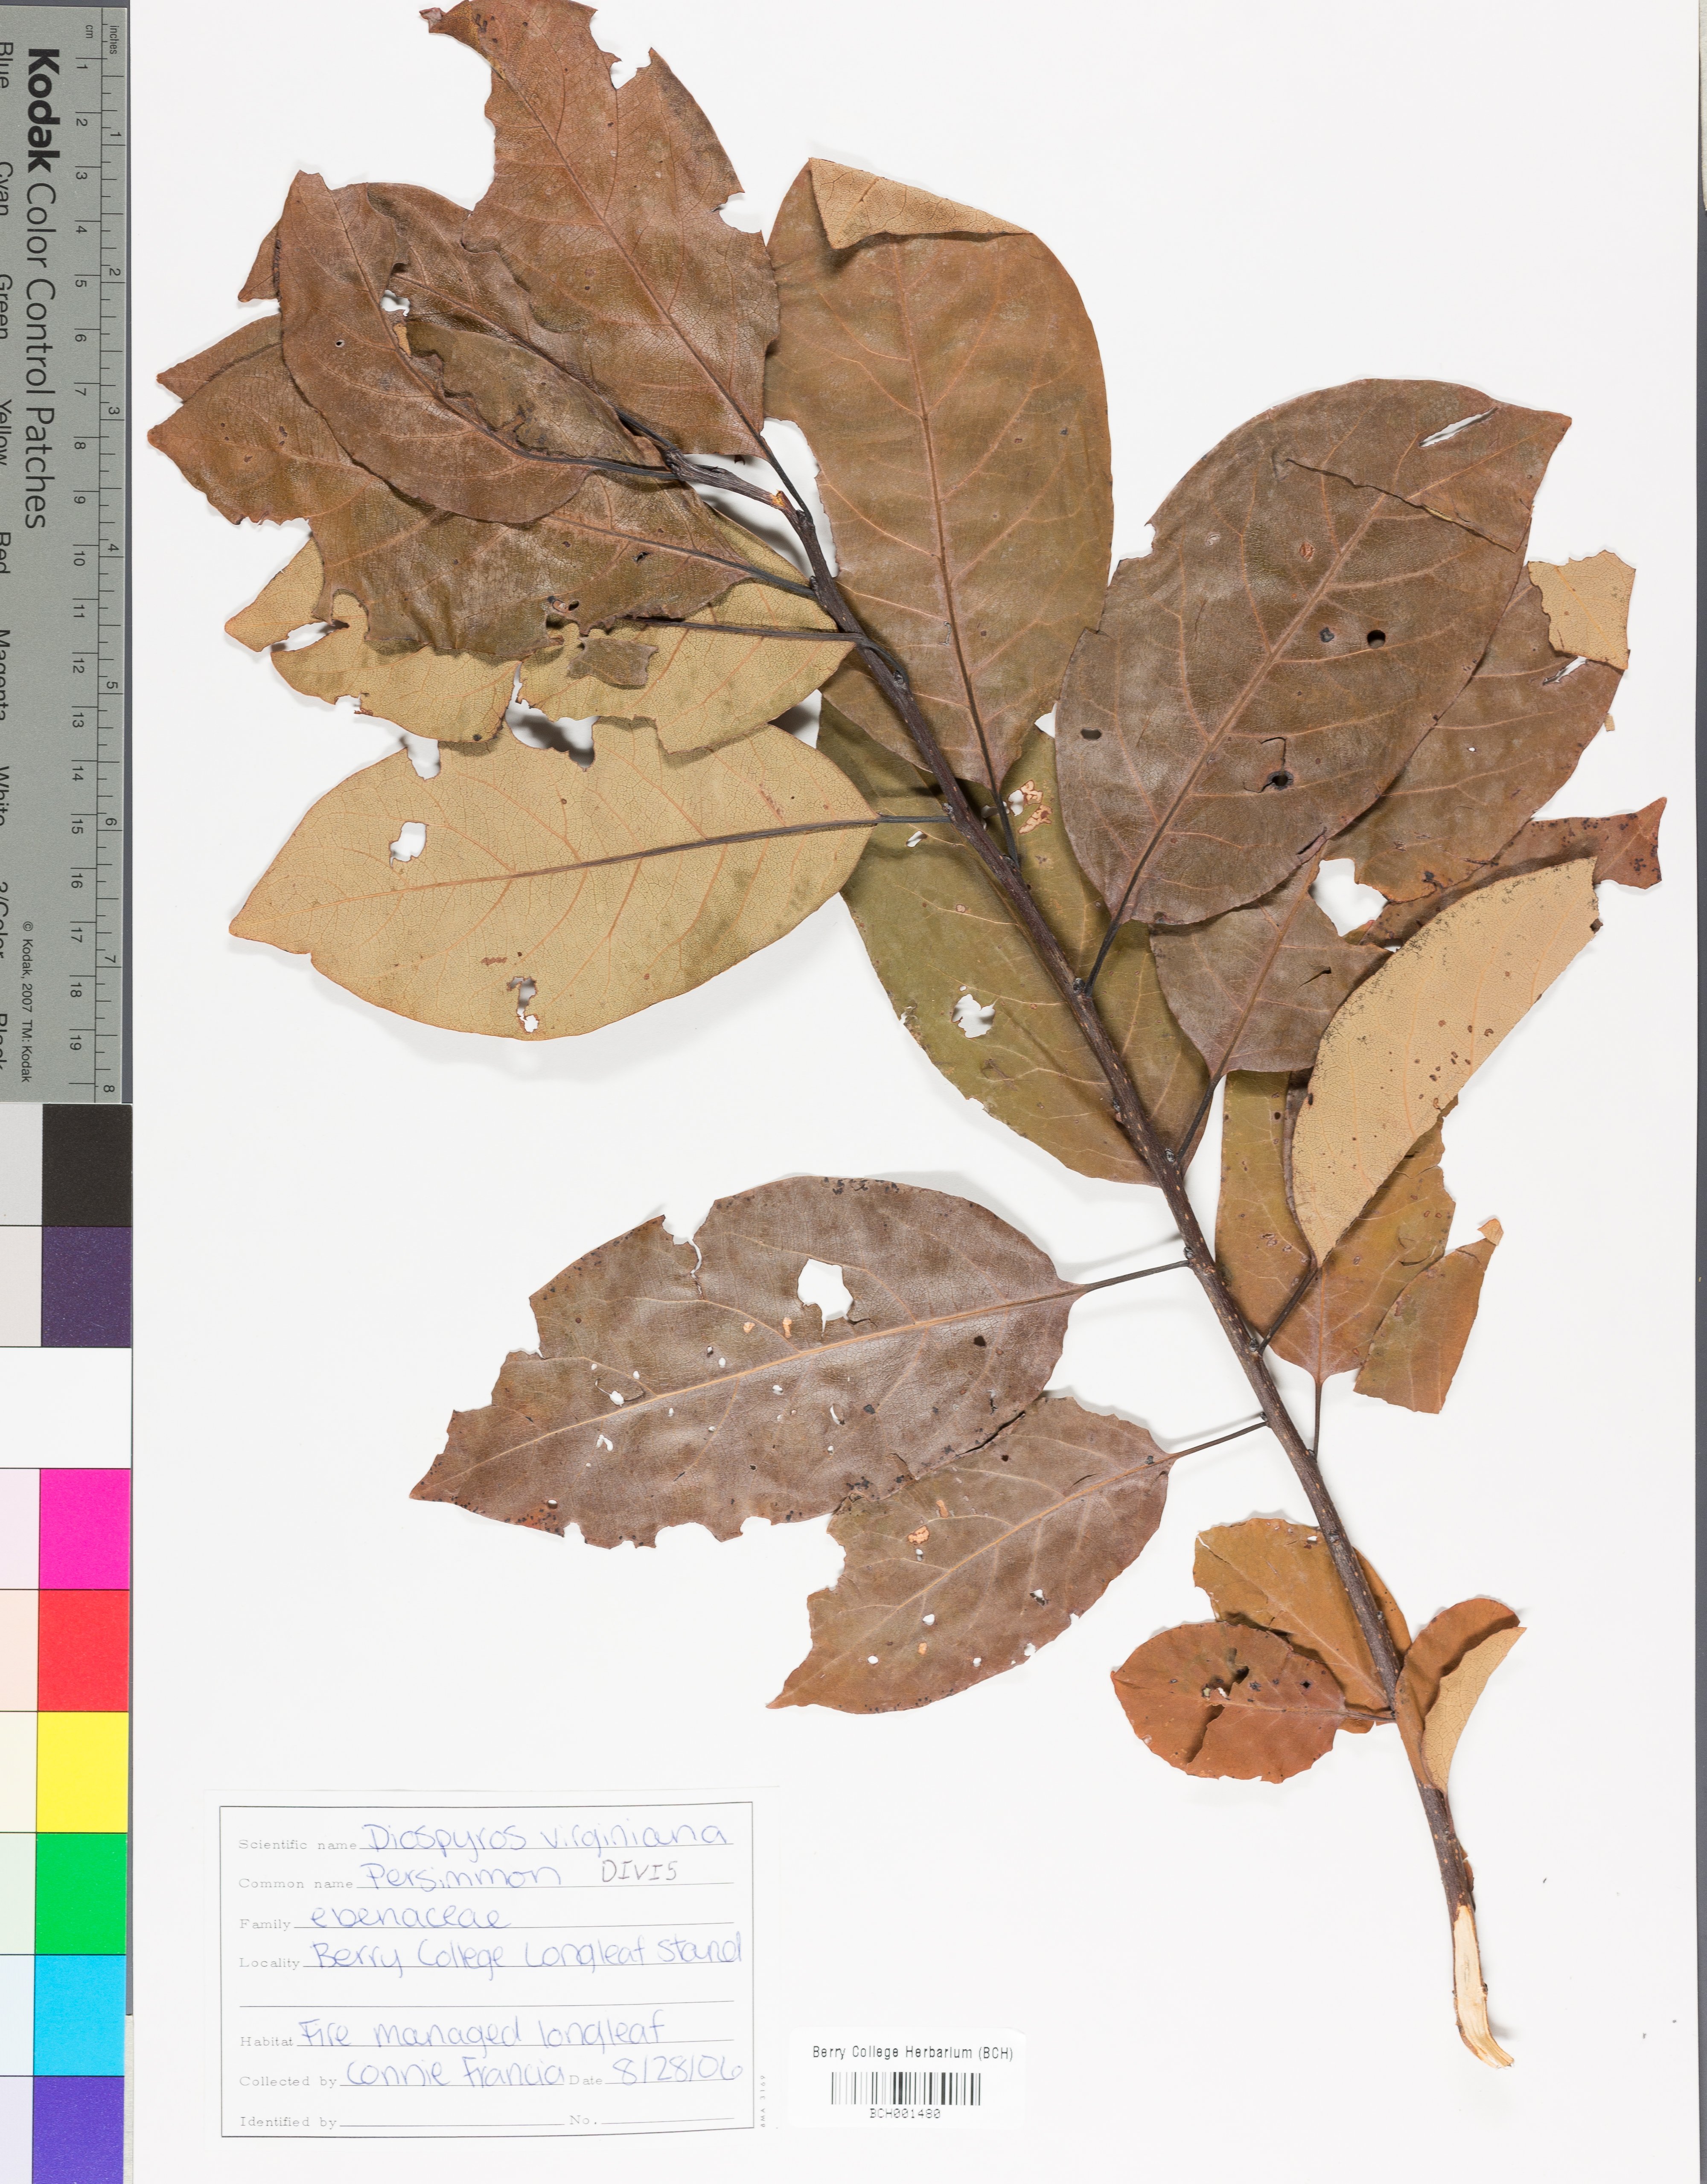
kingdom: Plantae
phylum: Tracheophyta
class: Magnoliopsida
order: Ericales
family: Ebenaceae
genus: Diospyros
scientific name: Diospyros virginiana
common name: Persimmon
